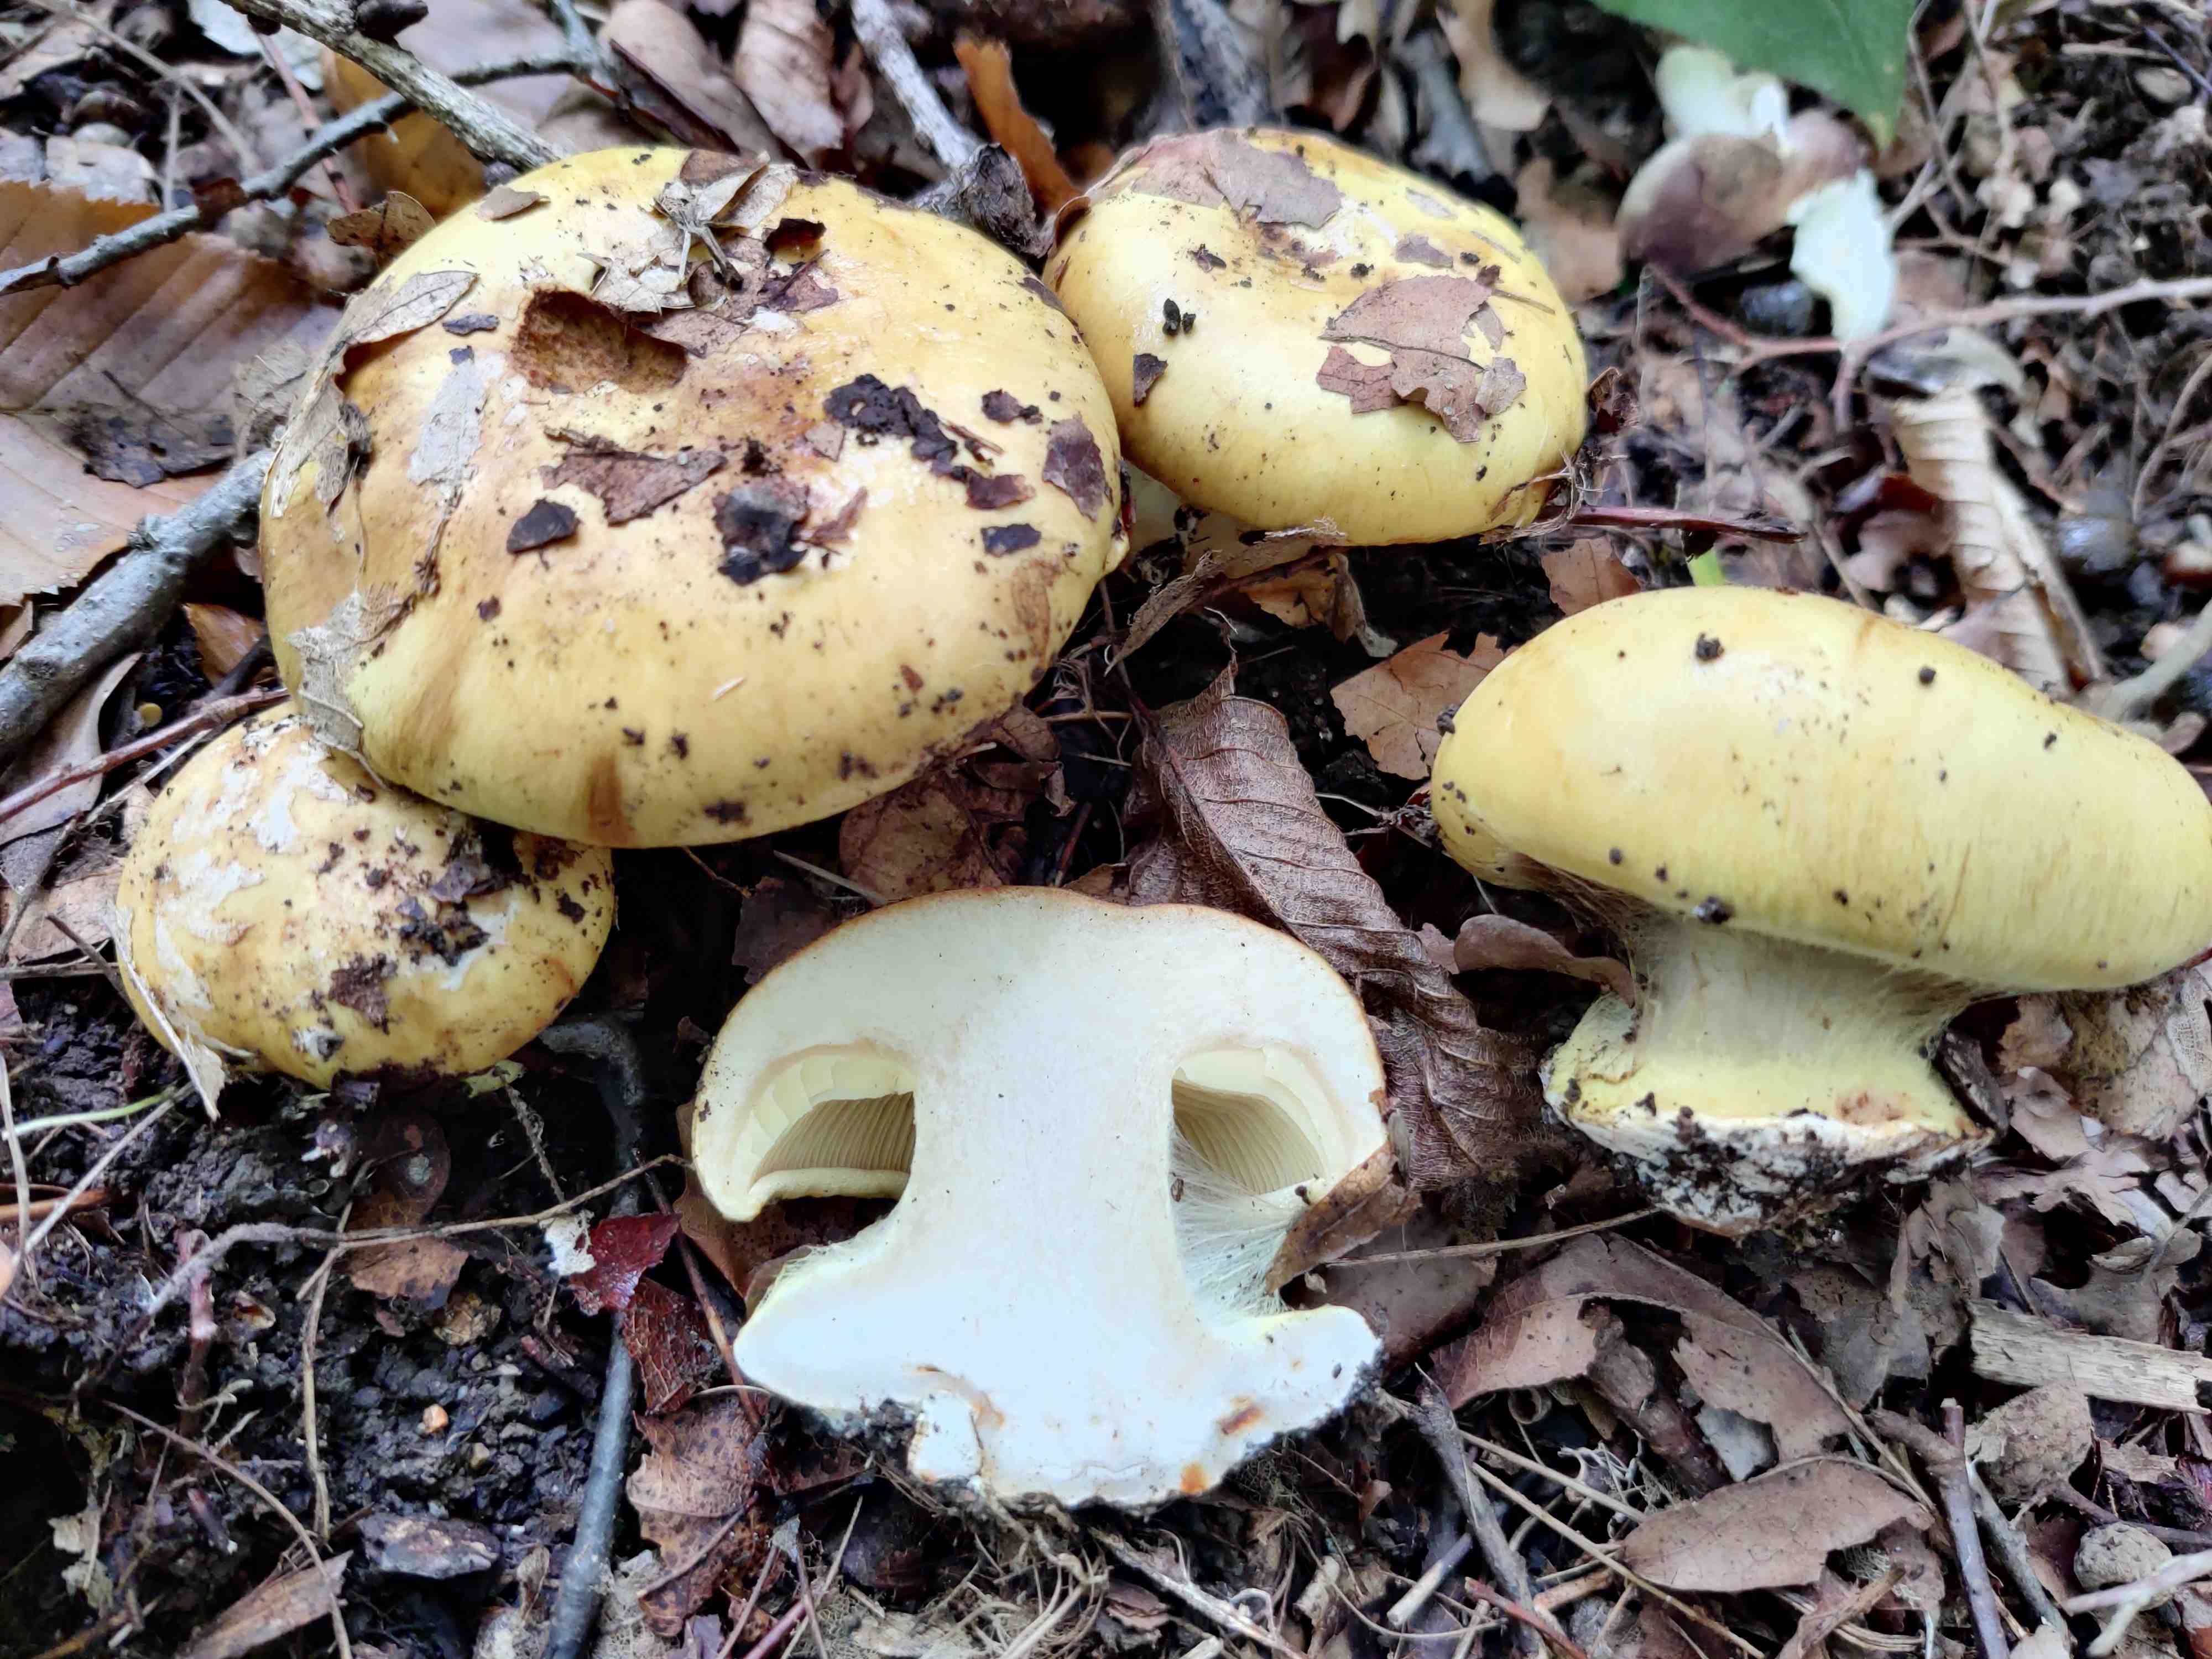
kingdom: Fungi
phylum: Basidiomycota
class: Agaricomycetes
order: Agaricales
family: Cortinariaceae
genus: Calonarius
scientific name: Calonarius hildegardiae
